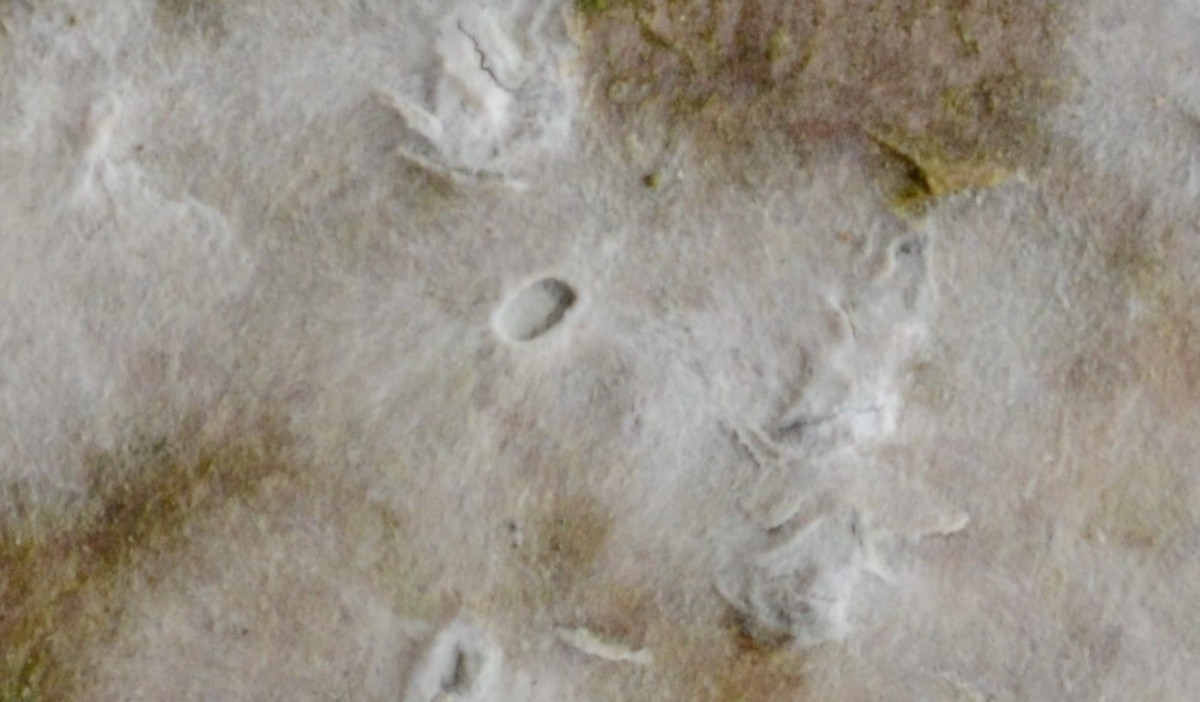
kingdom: Fungi
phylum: Basidiomycota
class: Agaricomycetes
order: Cantharellales
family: Hydnaceae
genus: Sistotrema
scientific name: Sistotrema brinkmannii
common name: bønnesporet kroneskorpe
